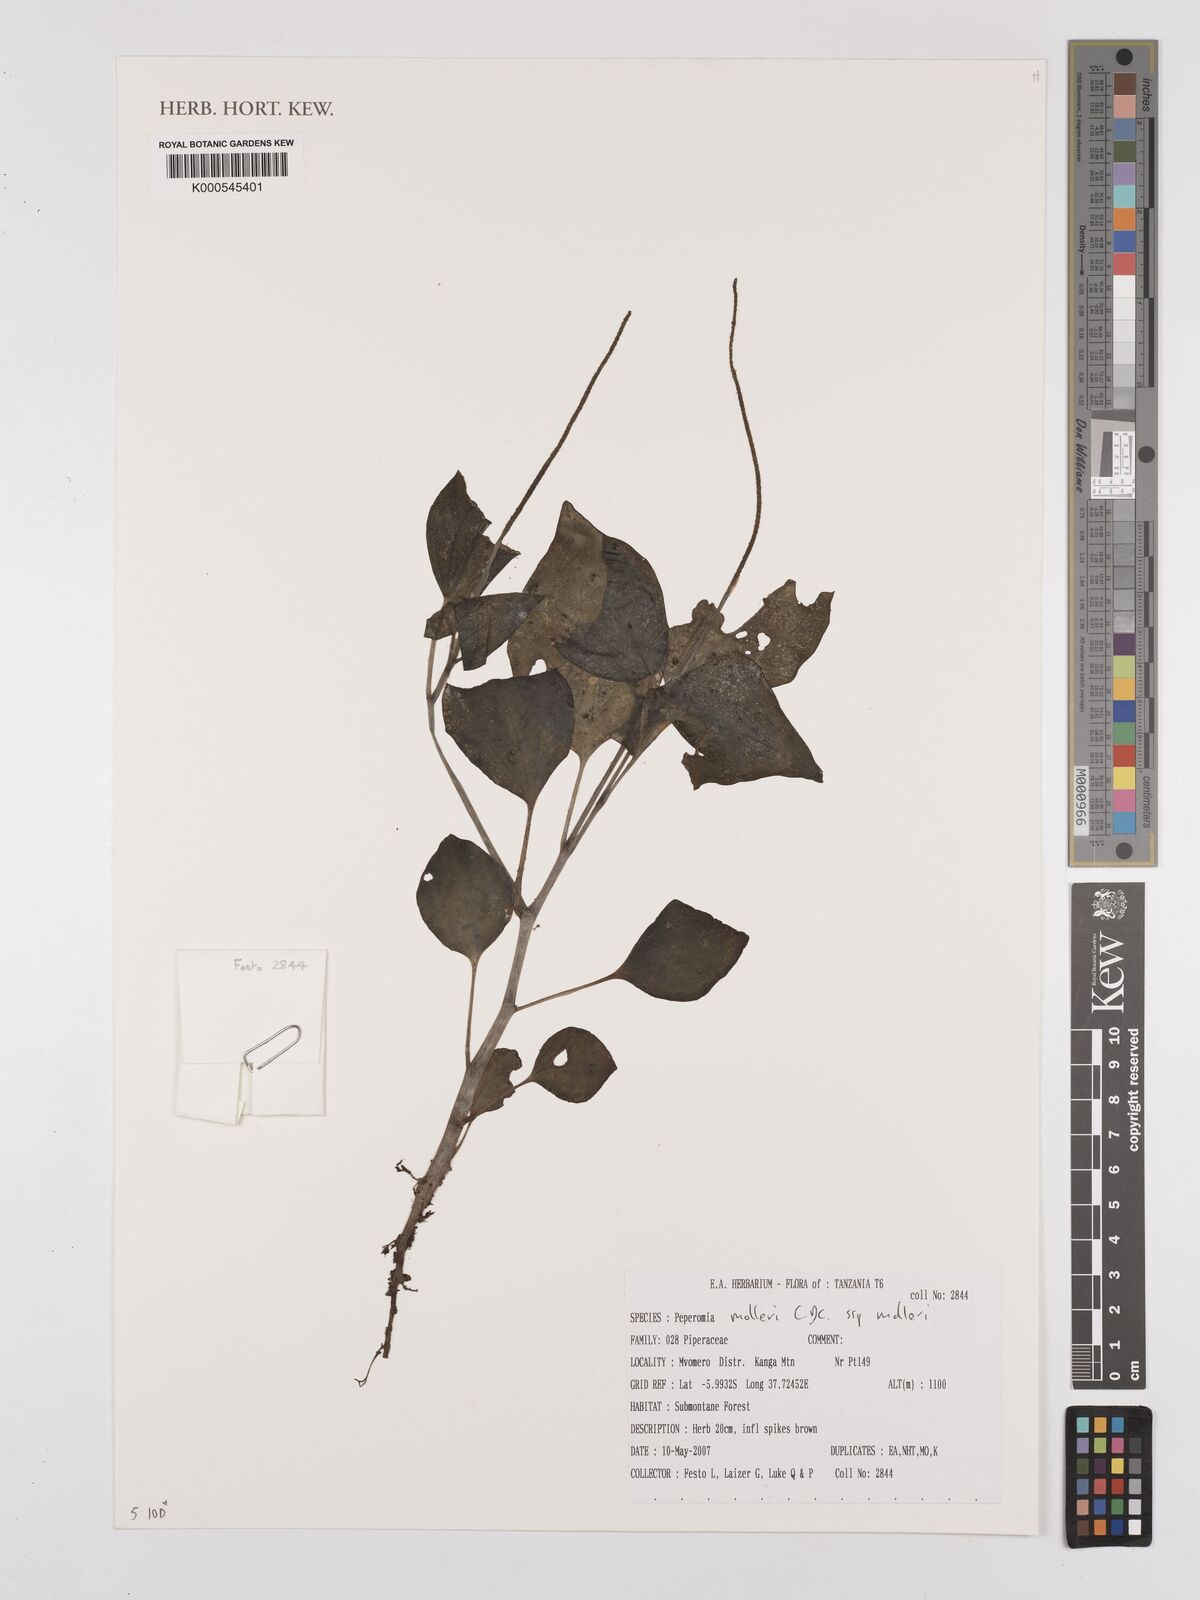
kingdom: Plantae
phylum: Tracheophyta
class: Magnoliopsida
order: Piperales
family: Piperaceae
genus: Peperomia
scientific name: Peperomia molleri
